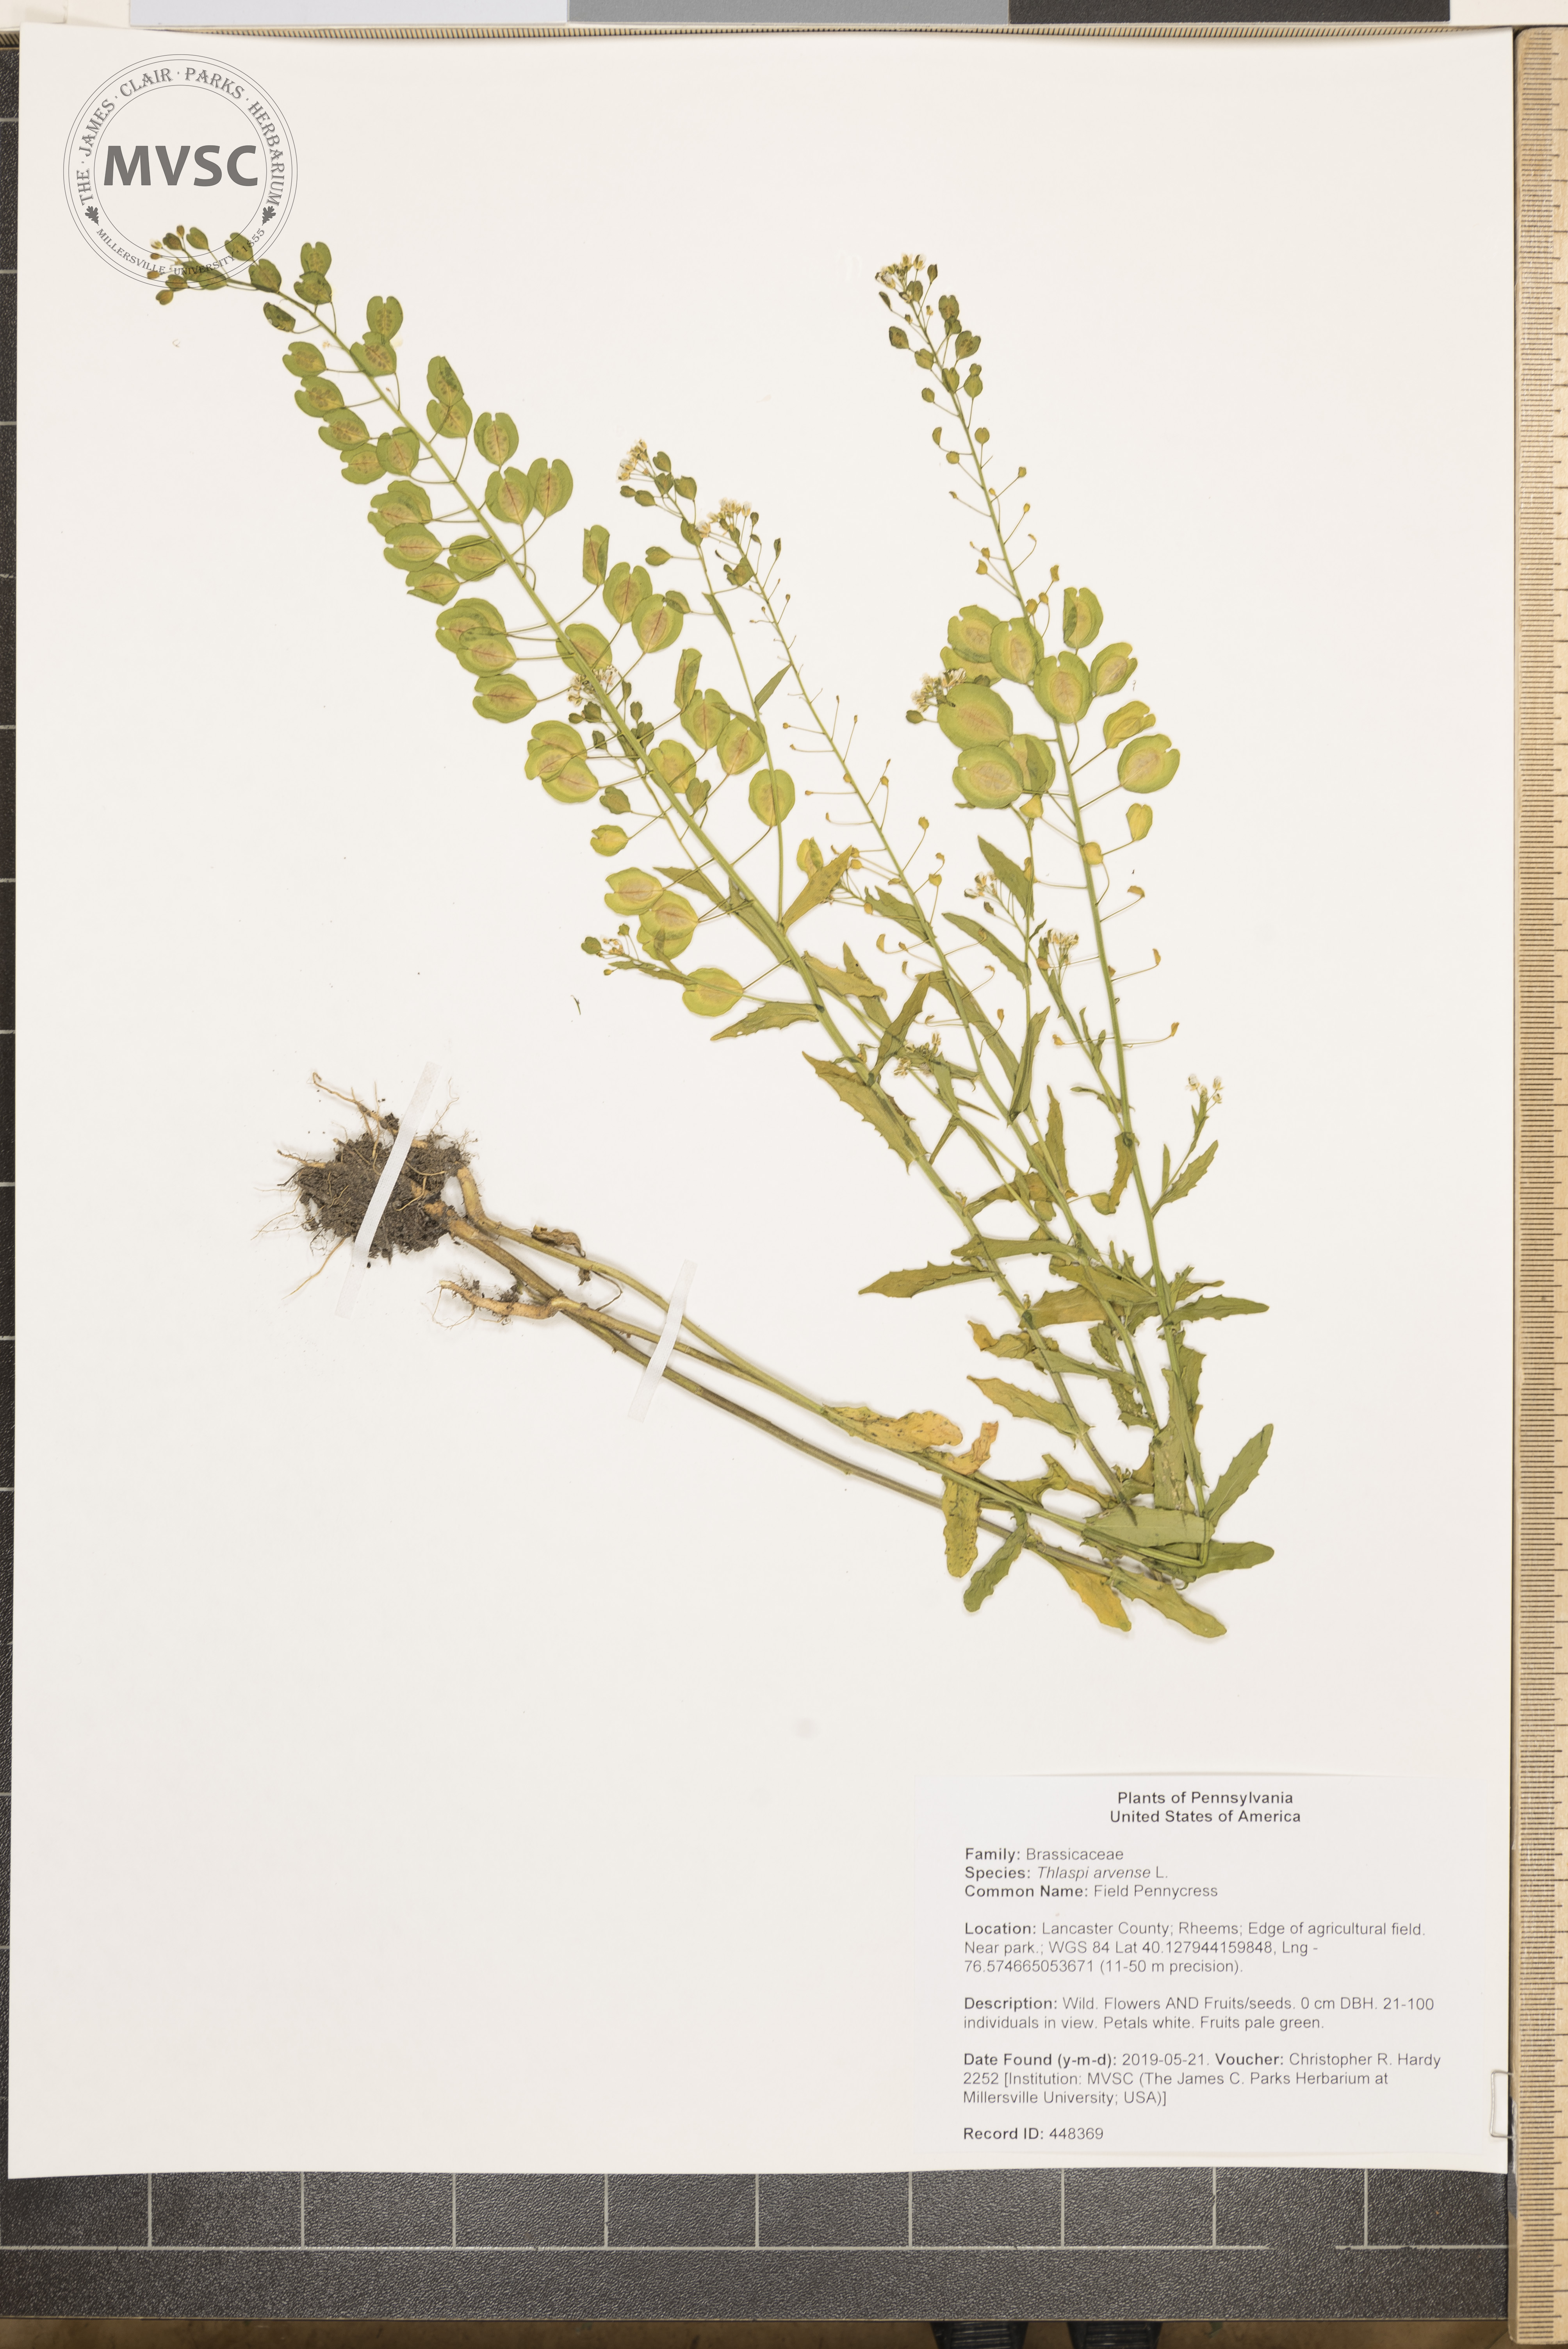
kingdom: Plantae
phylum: Tracheophyta
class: Magnoliopsida
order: Brassicales
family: Brassicaceae
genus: Thlaspi
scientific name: Thlaspi arvense
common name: Field Pennycress
